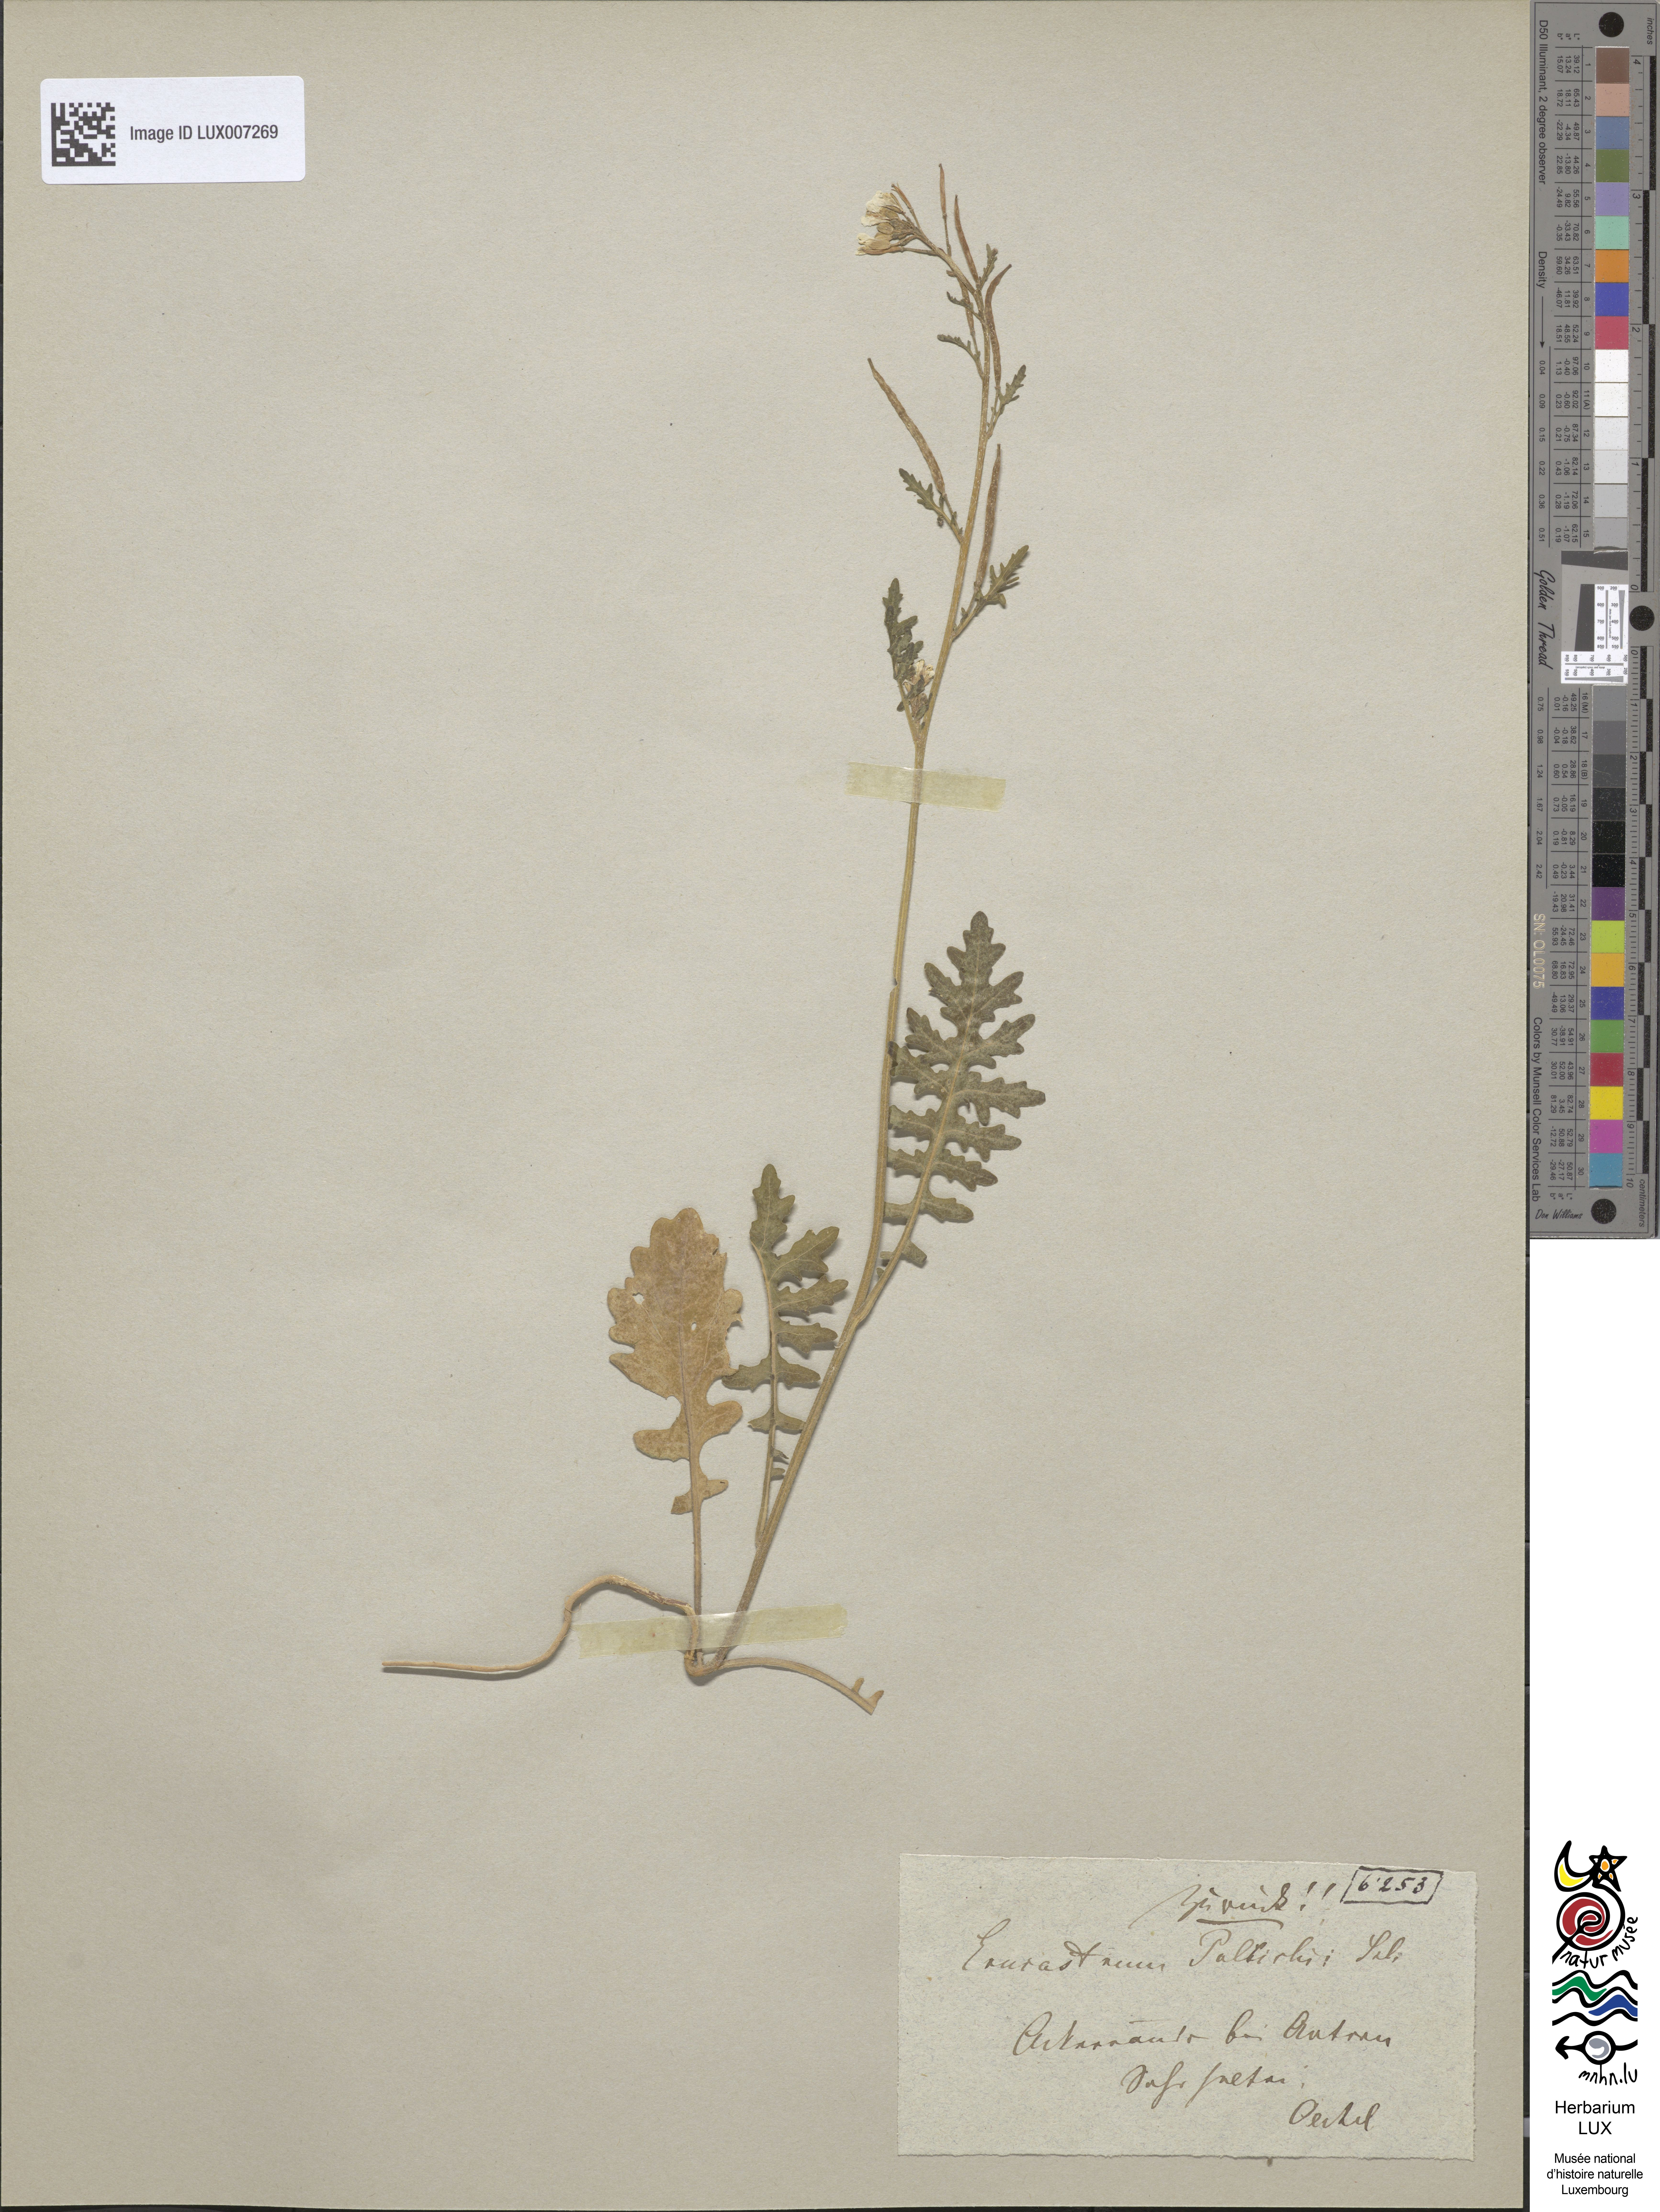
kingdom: Plantae
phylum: Tracheophyta
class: Magnoliopsida
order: Brassicales
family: Brassicaceae
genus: Erucastrum
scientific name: Erucastrum gallicum
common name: Hairy rocket
